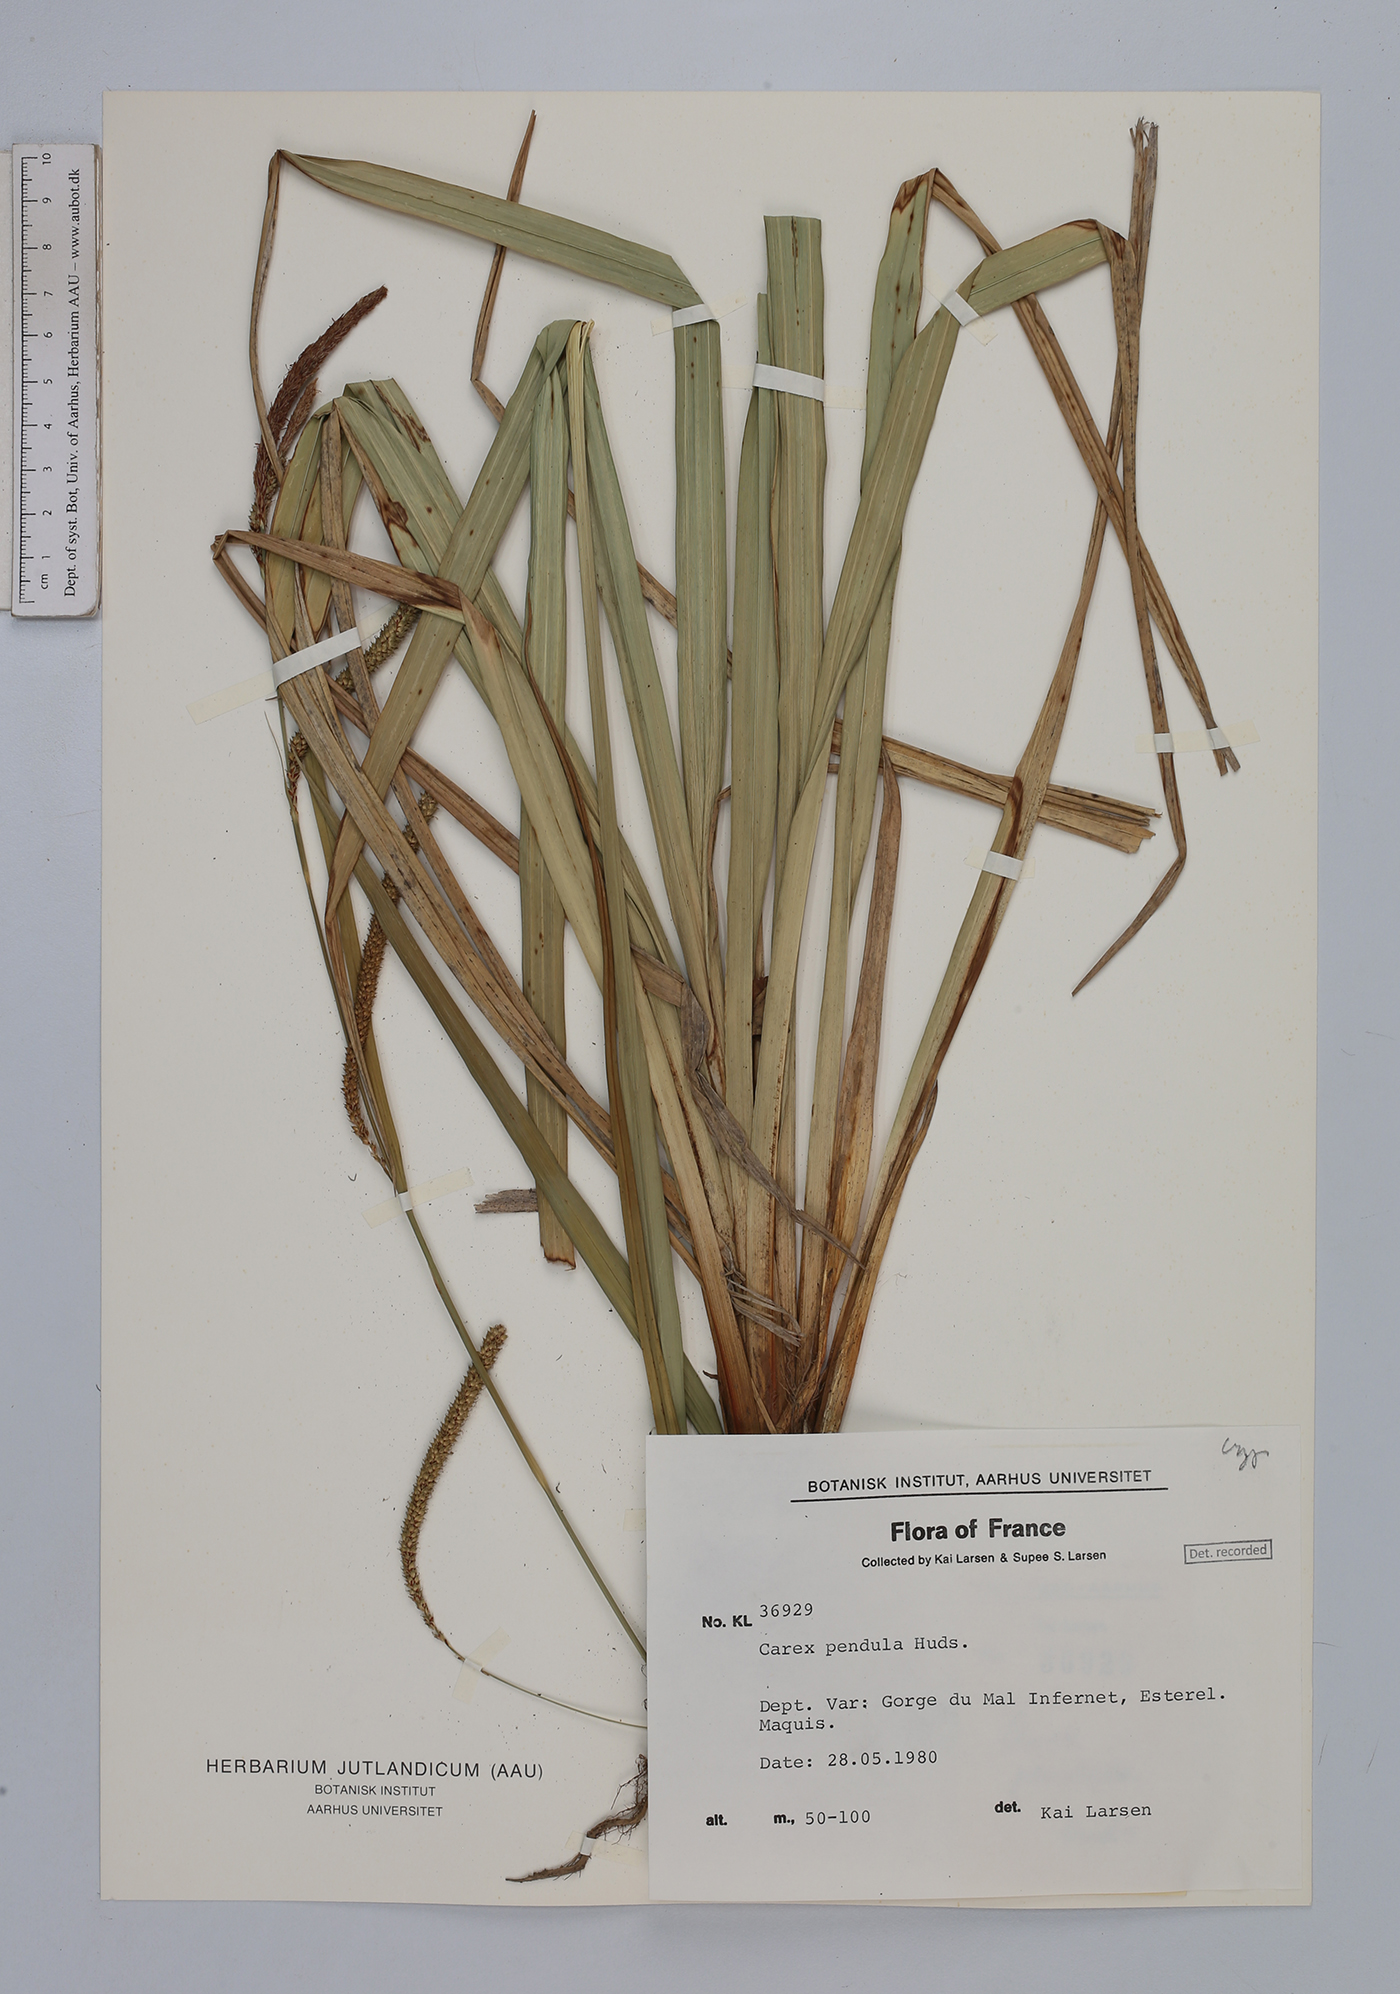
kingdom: Plantae
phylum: Tracheophyta
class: Liliopsida
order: Poales
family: Cyperaceae
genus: Carex
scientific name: Carex pendula
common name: Pendulous sedge
